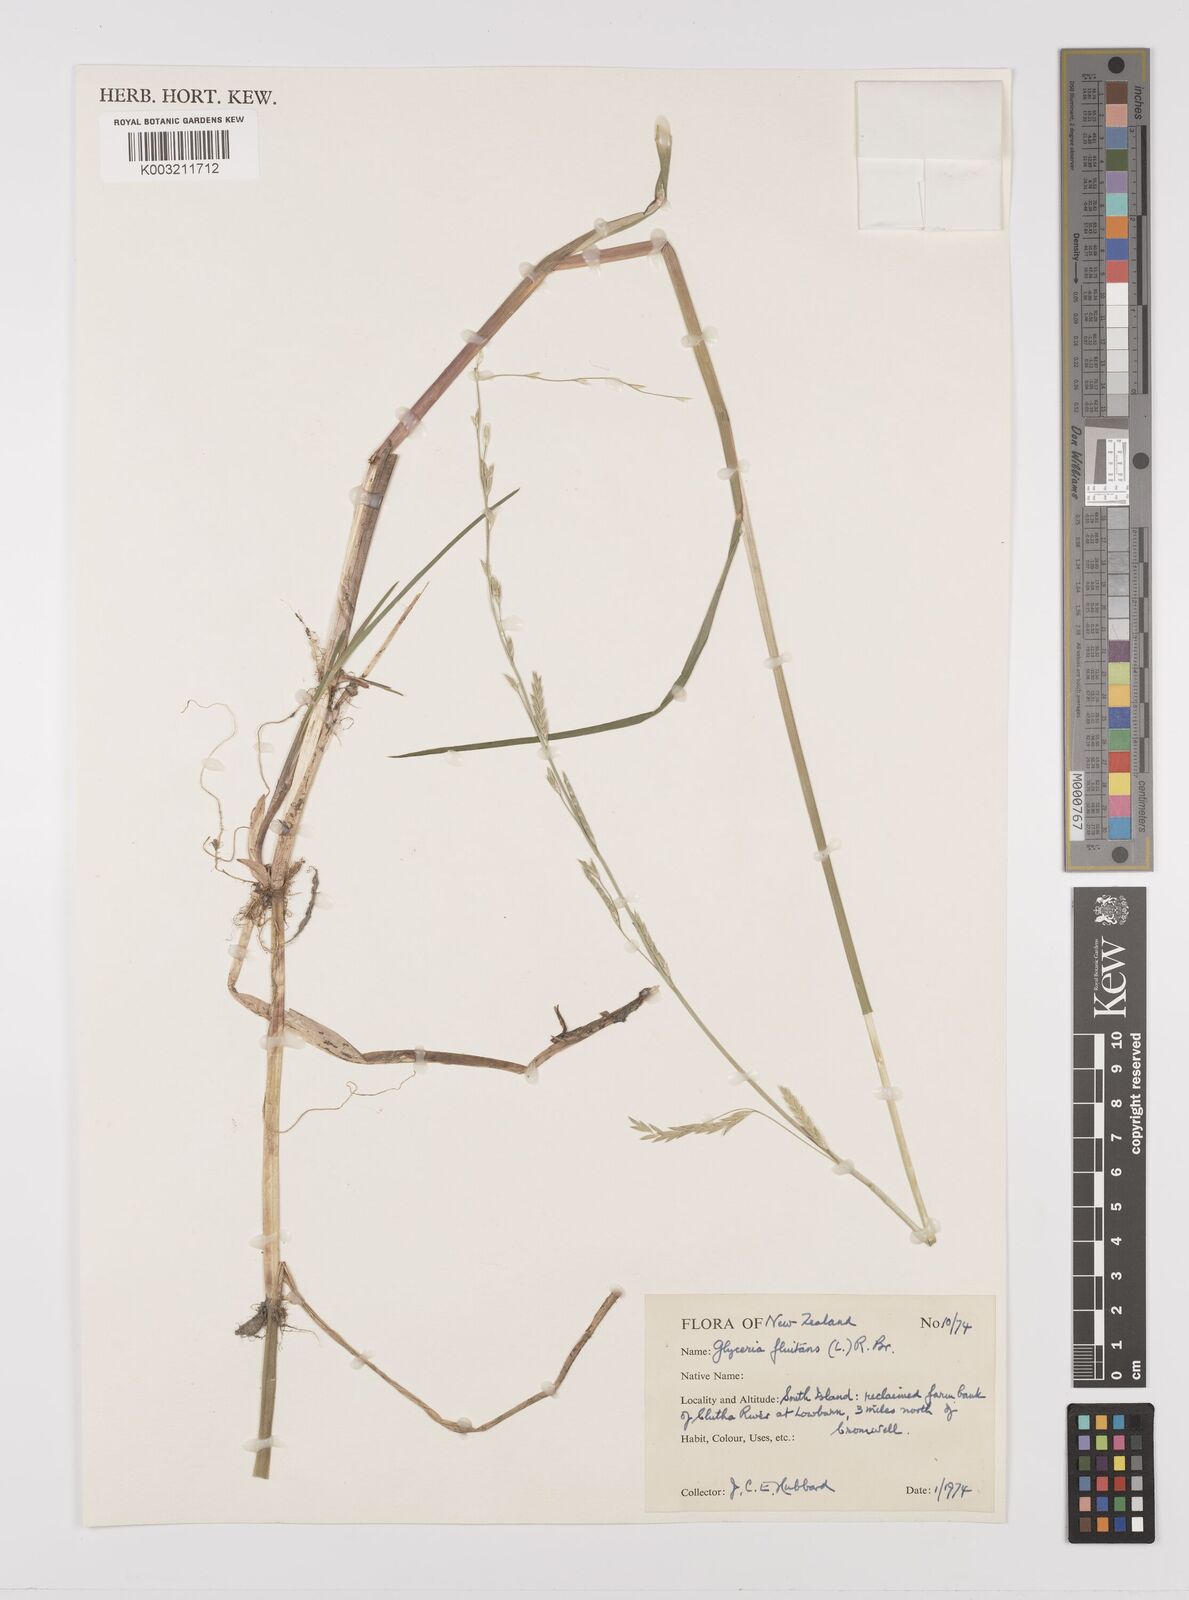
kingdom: Plantae
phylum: Tracheophyta
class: Liliopsida
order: Poales
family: Poaceae
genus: Glyceria
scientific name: Glyceria fluitans
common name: Floating sweet-grass
